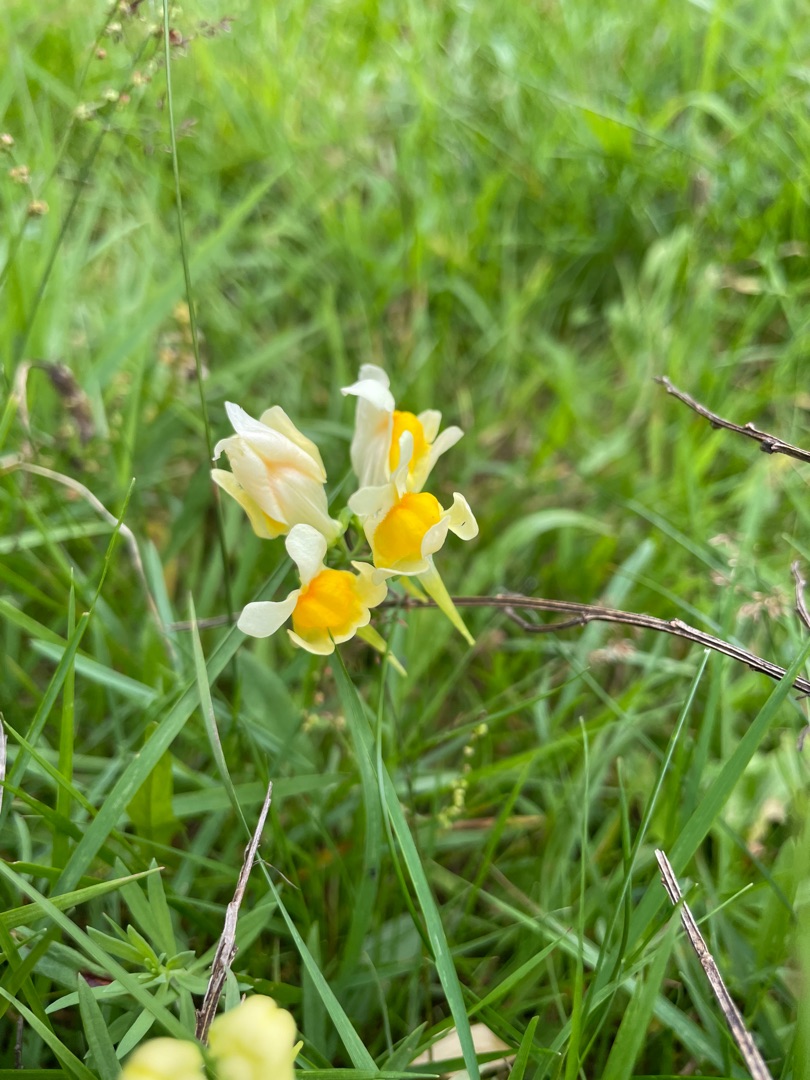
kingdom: Plantae
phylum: Tracheophyta
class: Magnoliopsida
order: Lamiales
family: Plantaginaceae
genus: Linaria
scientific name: Linaria vulgaris
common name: Almindelig torskemund
